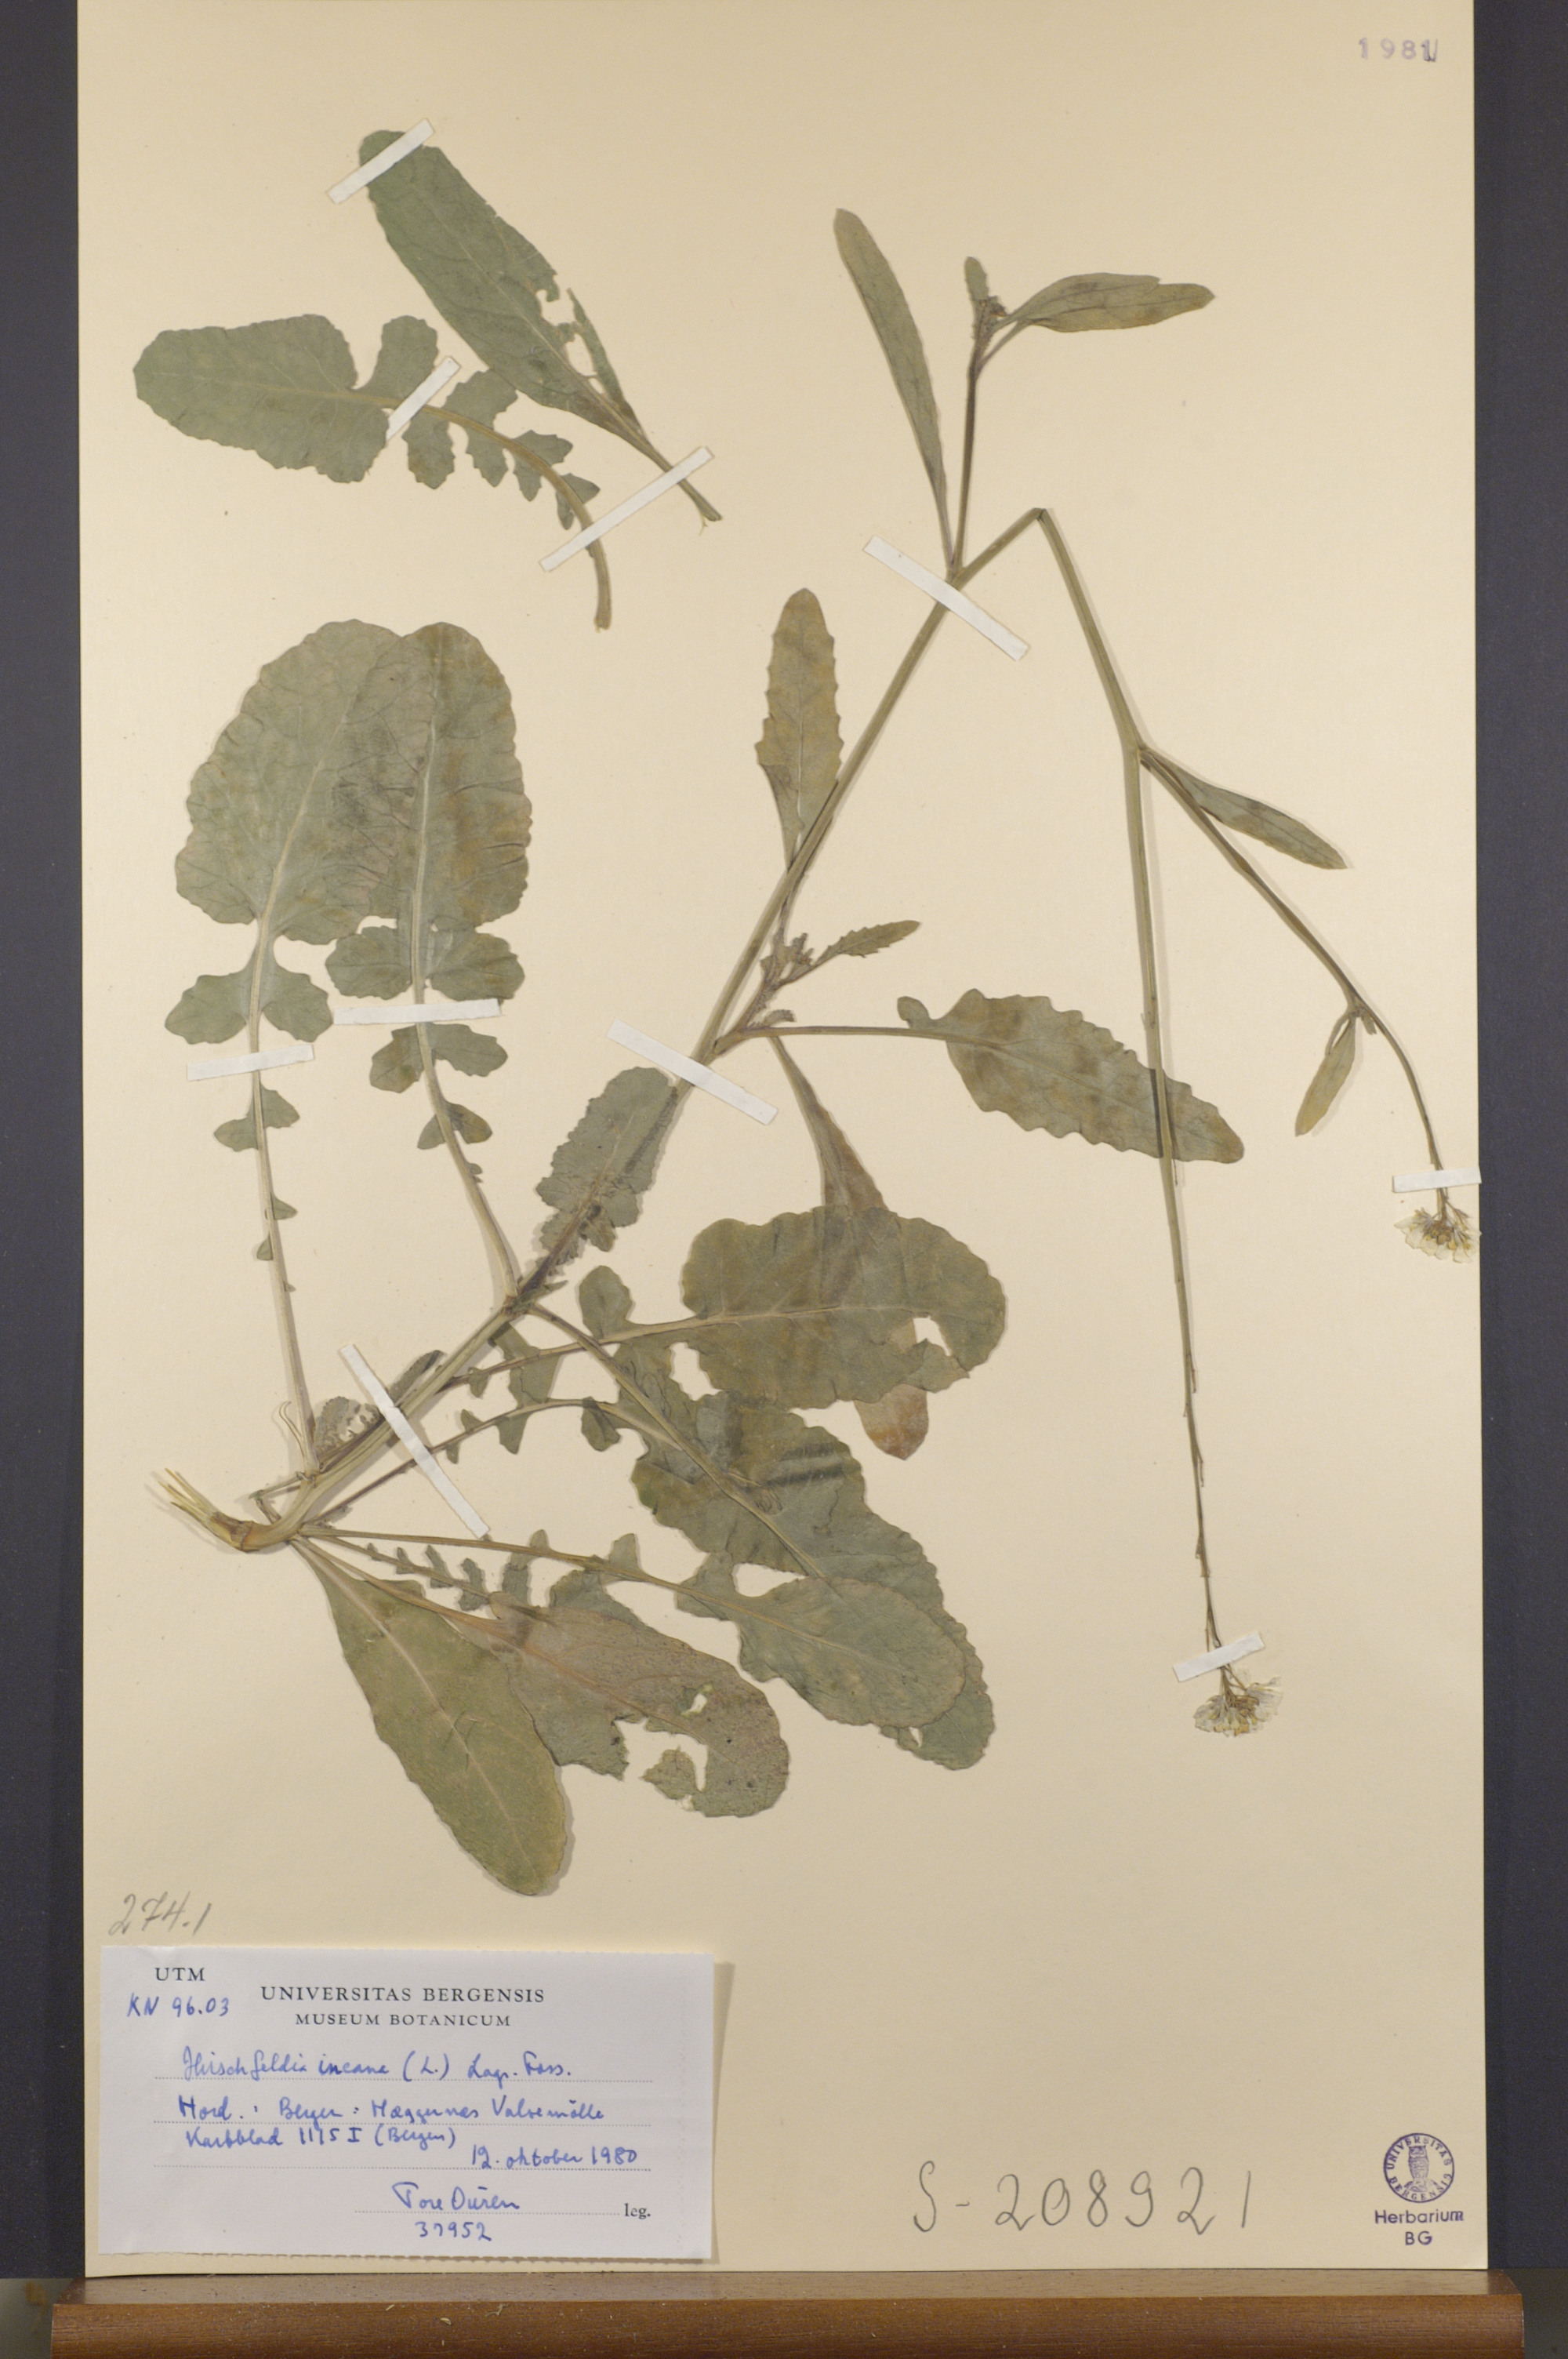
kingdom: Plantae
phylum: Tracheophyta
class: Magnoliopsida
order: Brassicales
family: Brassicaceae
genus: Hirschfeldia
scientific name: Hirschfeldia incana
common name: Hoary mustard
